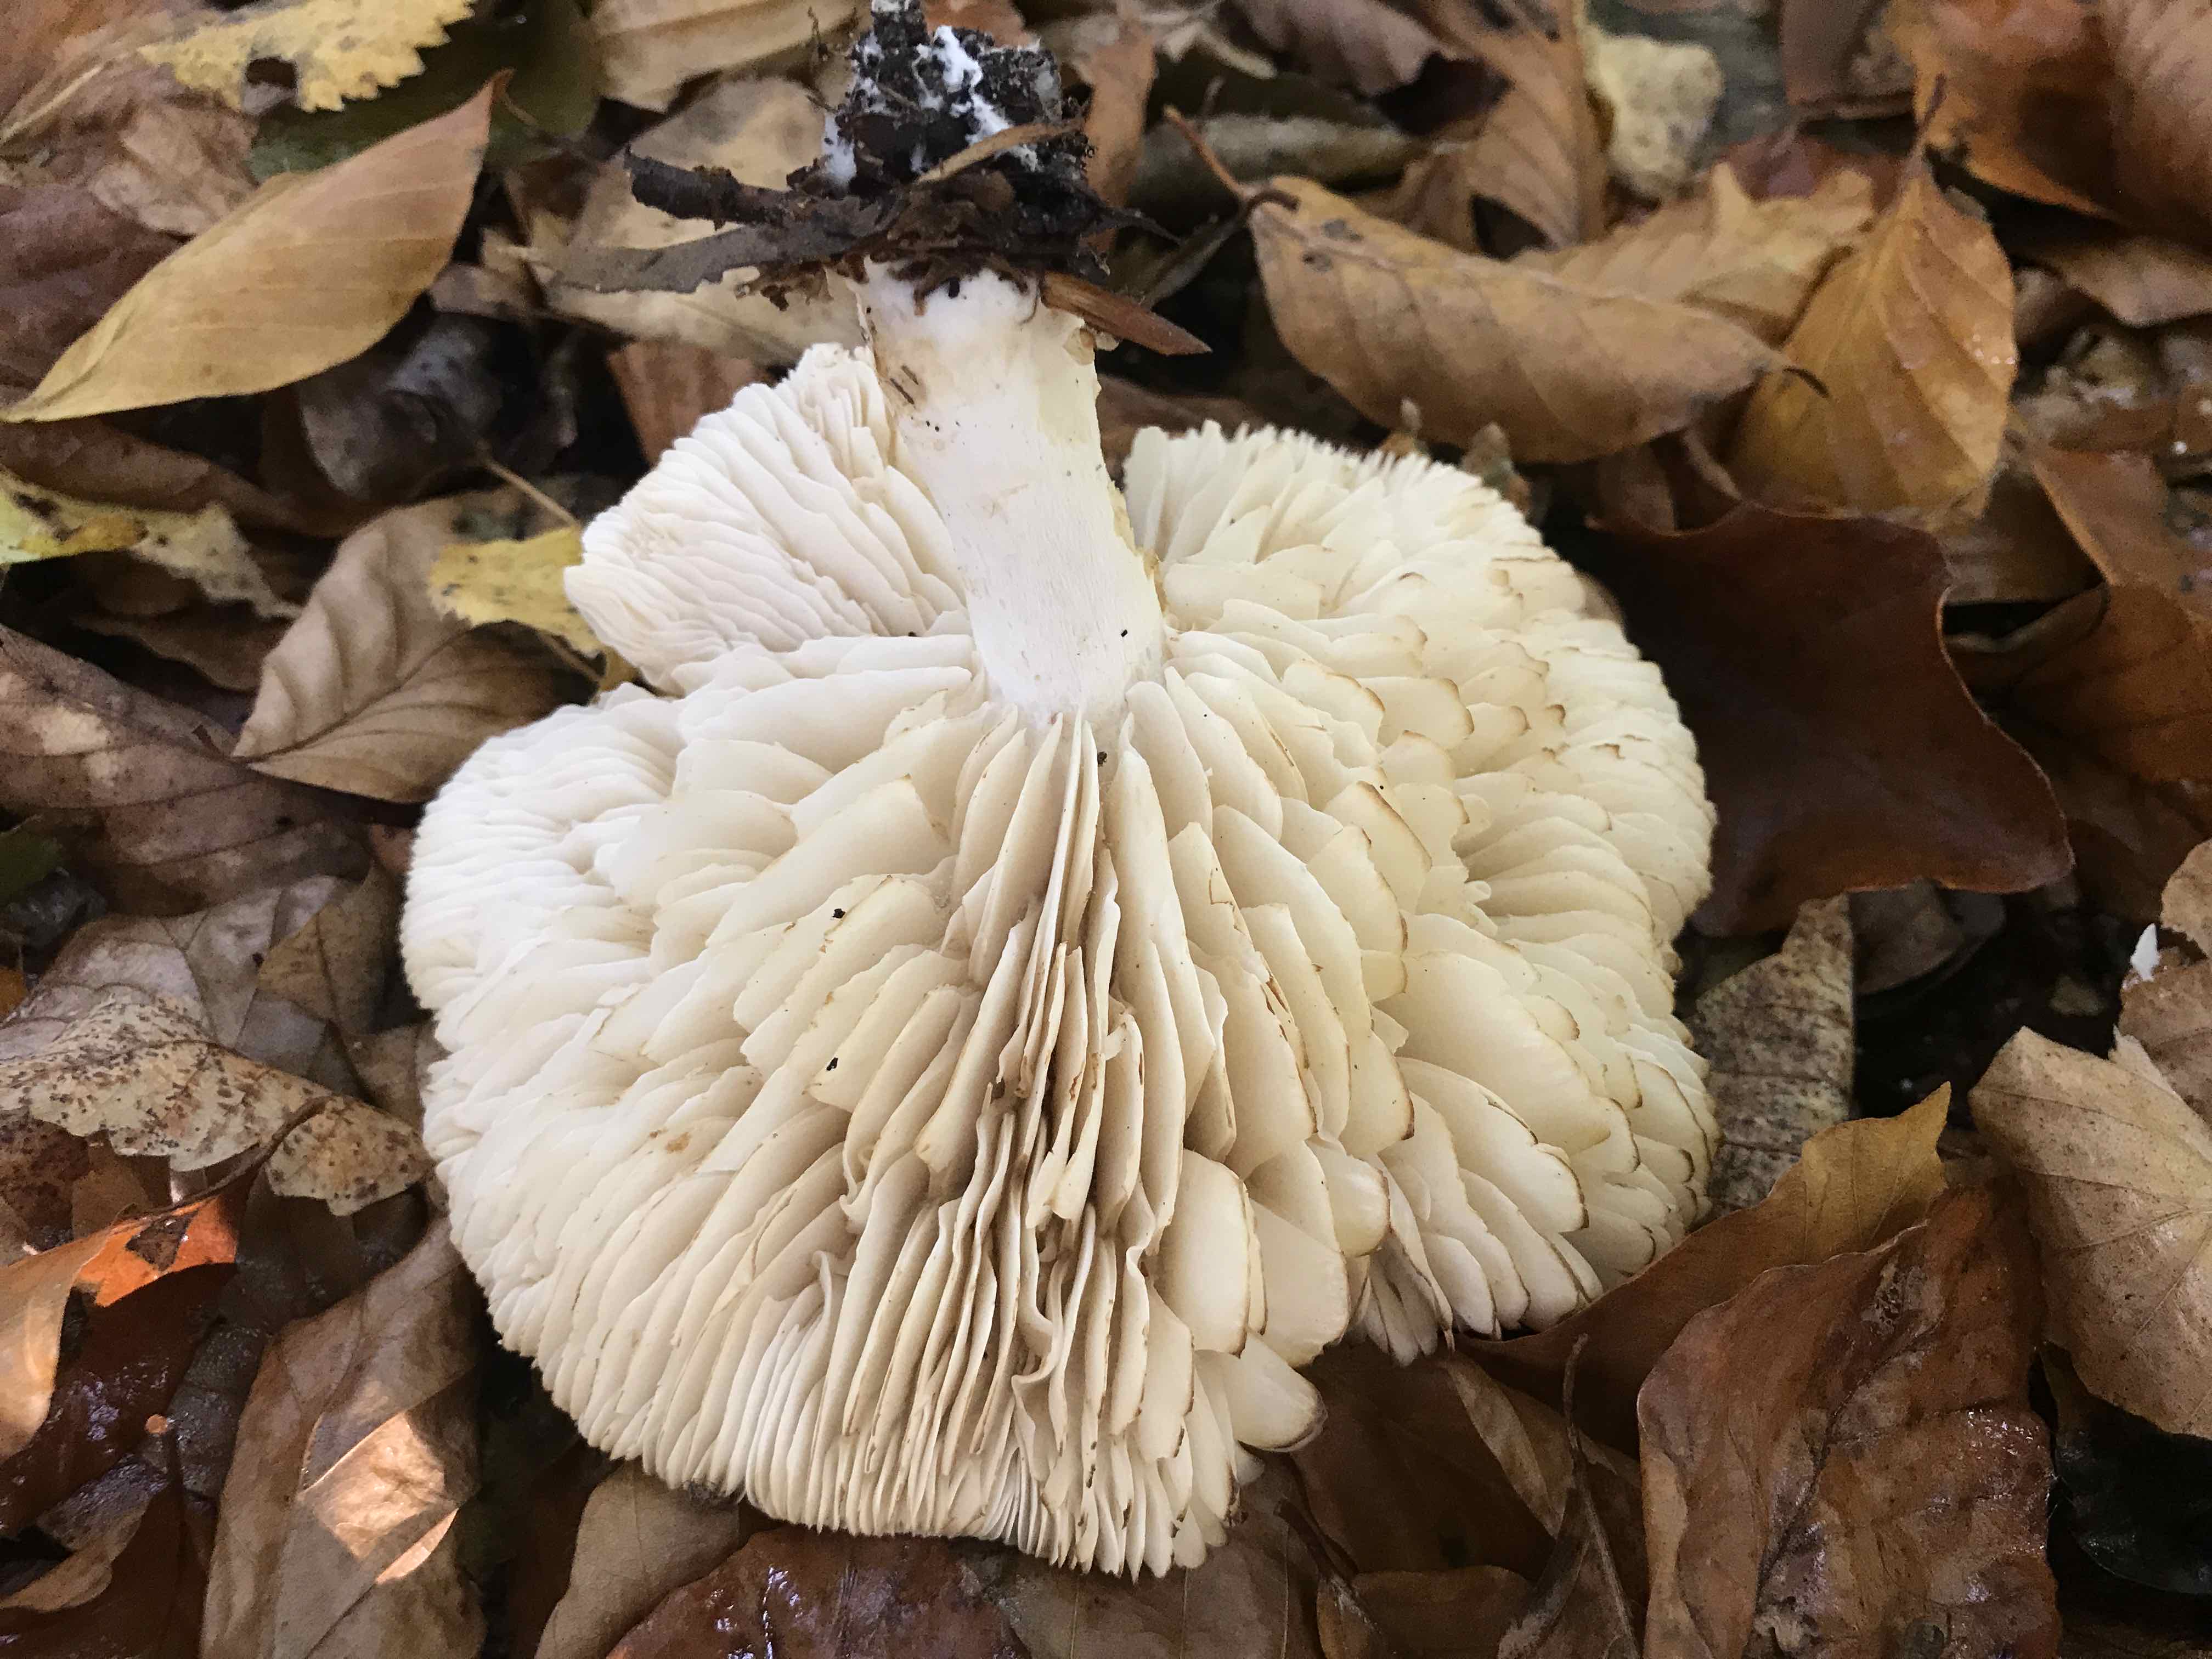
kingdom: Fungi
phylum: Basidiomycota
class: Agaricomycetes
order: Agaricales
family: Tricholomataceae
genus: Tricholoma
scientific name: Tricholoma lascivum
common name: stinkende ridderhat
